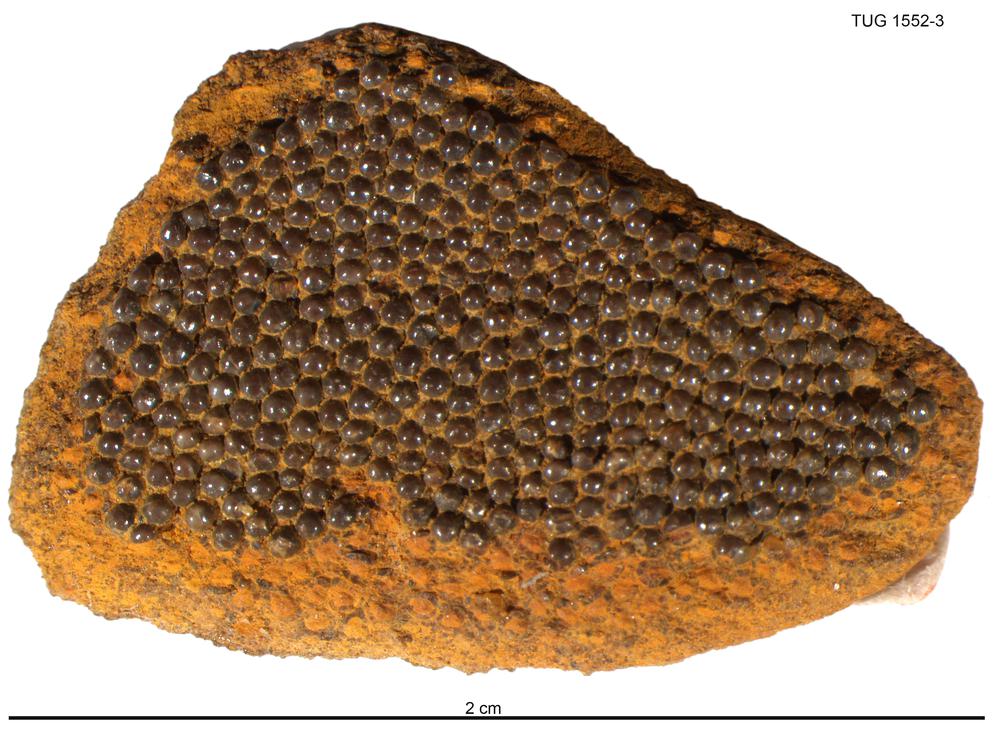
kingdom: Animalia
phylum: Chordata
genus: Guerichosteus
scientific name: Guerichosteus
